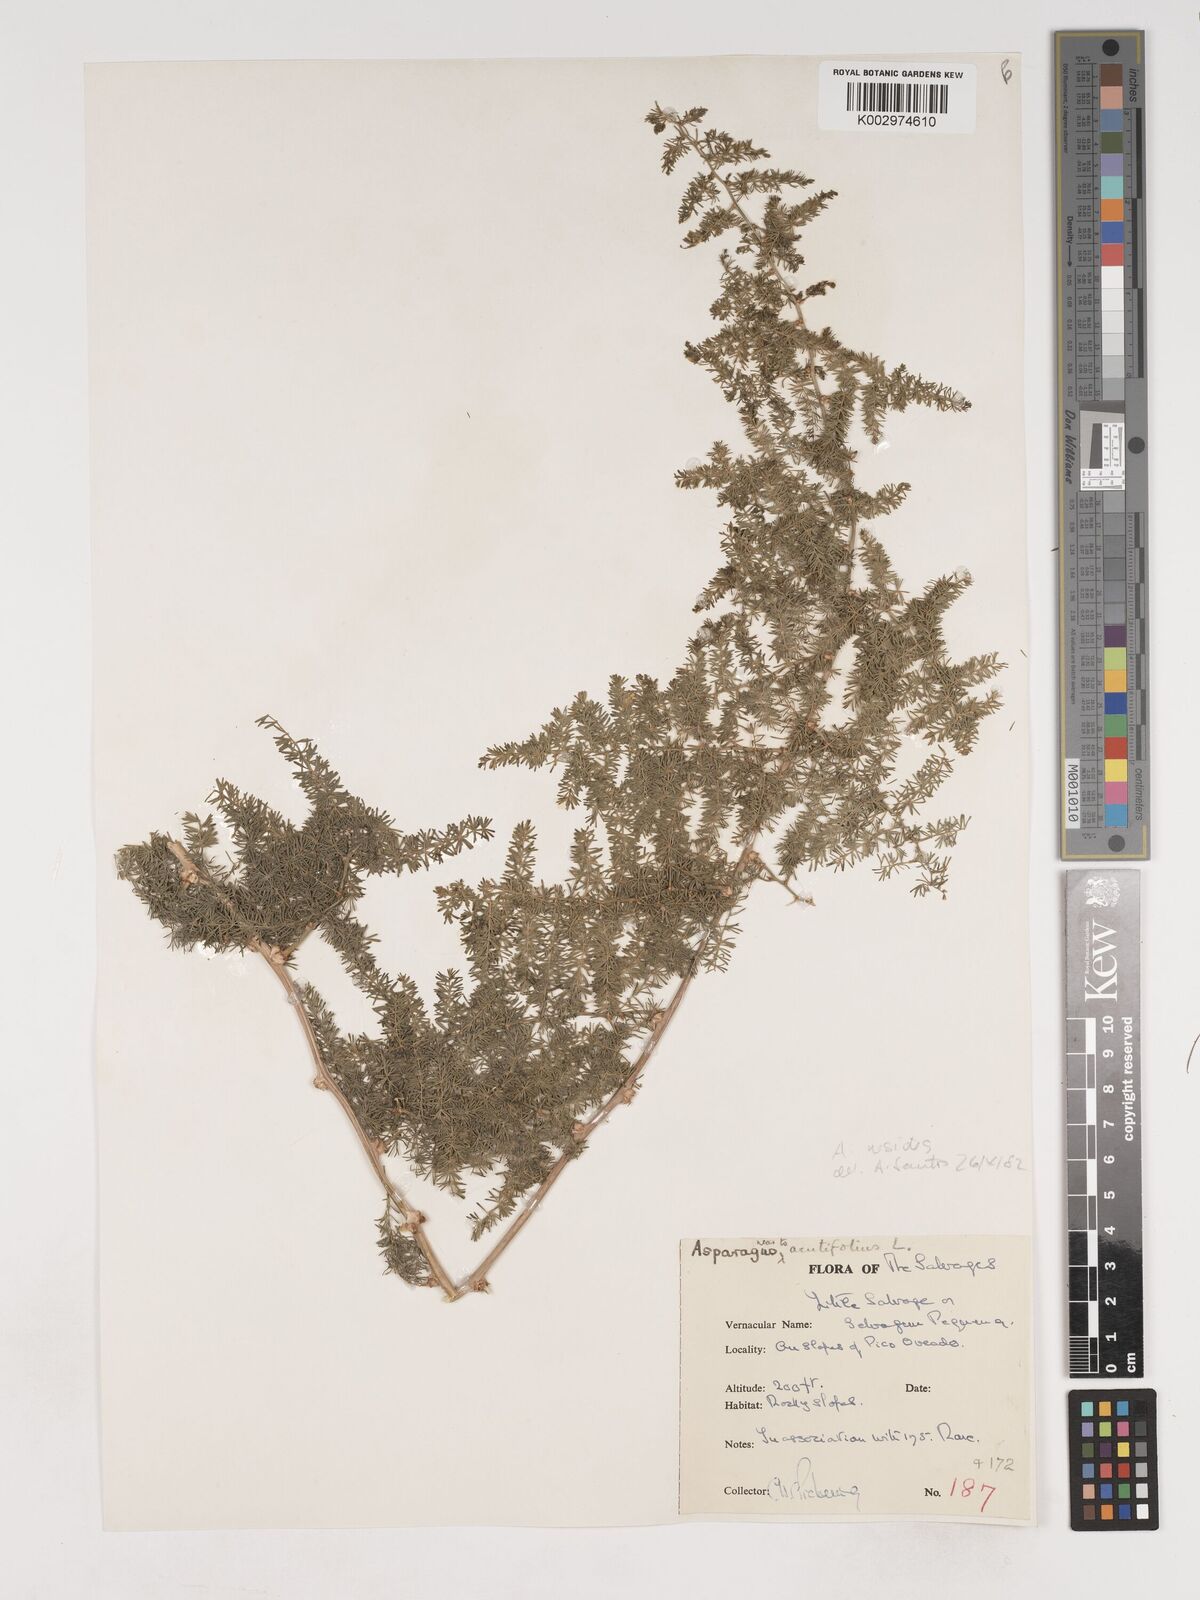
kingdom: Plantae
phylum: Tracheophyta
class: Liliopsida
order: Asparagales
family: Asparagaceae
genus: Asparagus
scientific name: Asparagus acutifolius
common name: Wild asparagus
